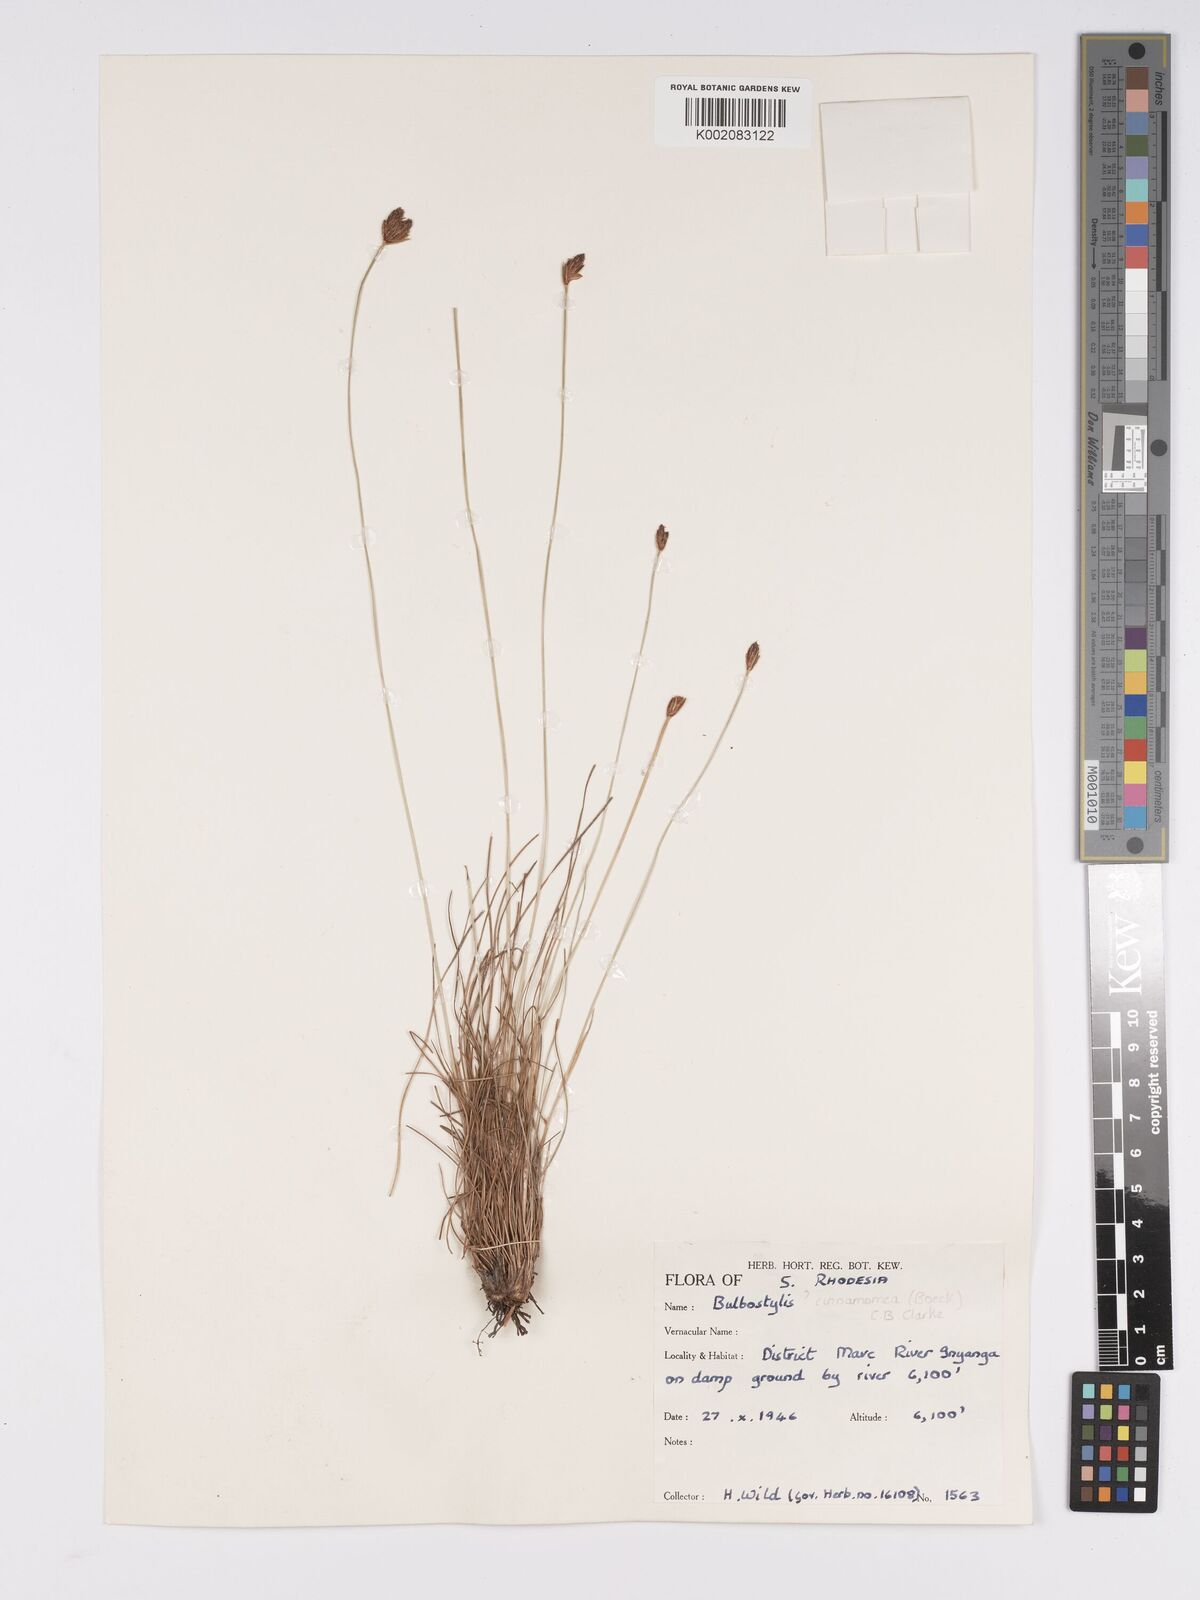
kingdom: Plantae
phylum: Tracheophyta
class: Liliopsida
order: Poales
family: Cyperaceae
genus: Bulbostylis
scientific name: Bulbostylis schoenoides
